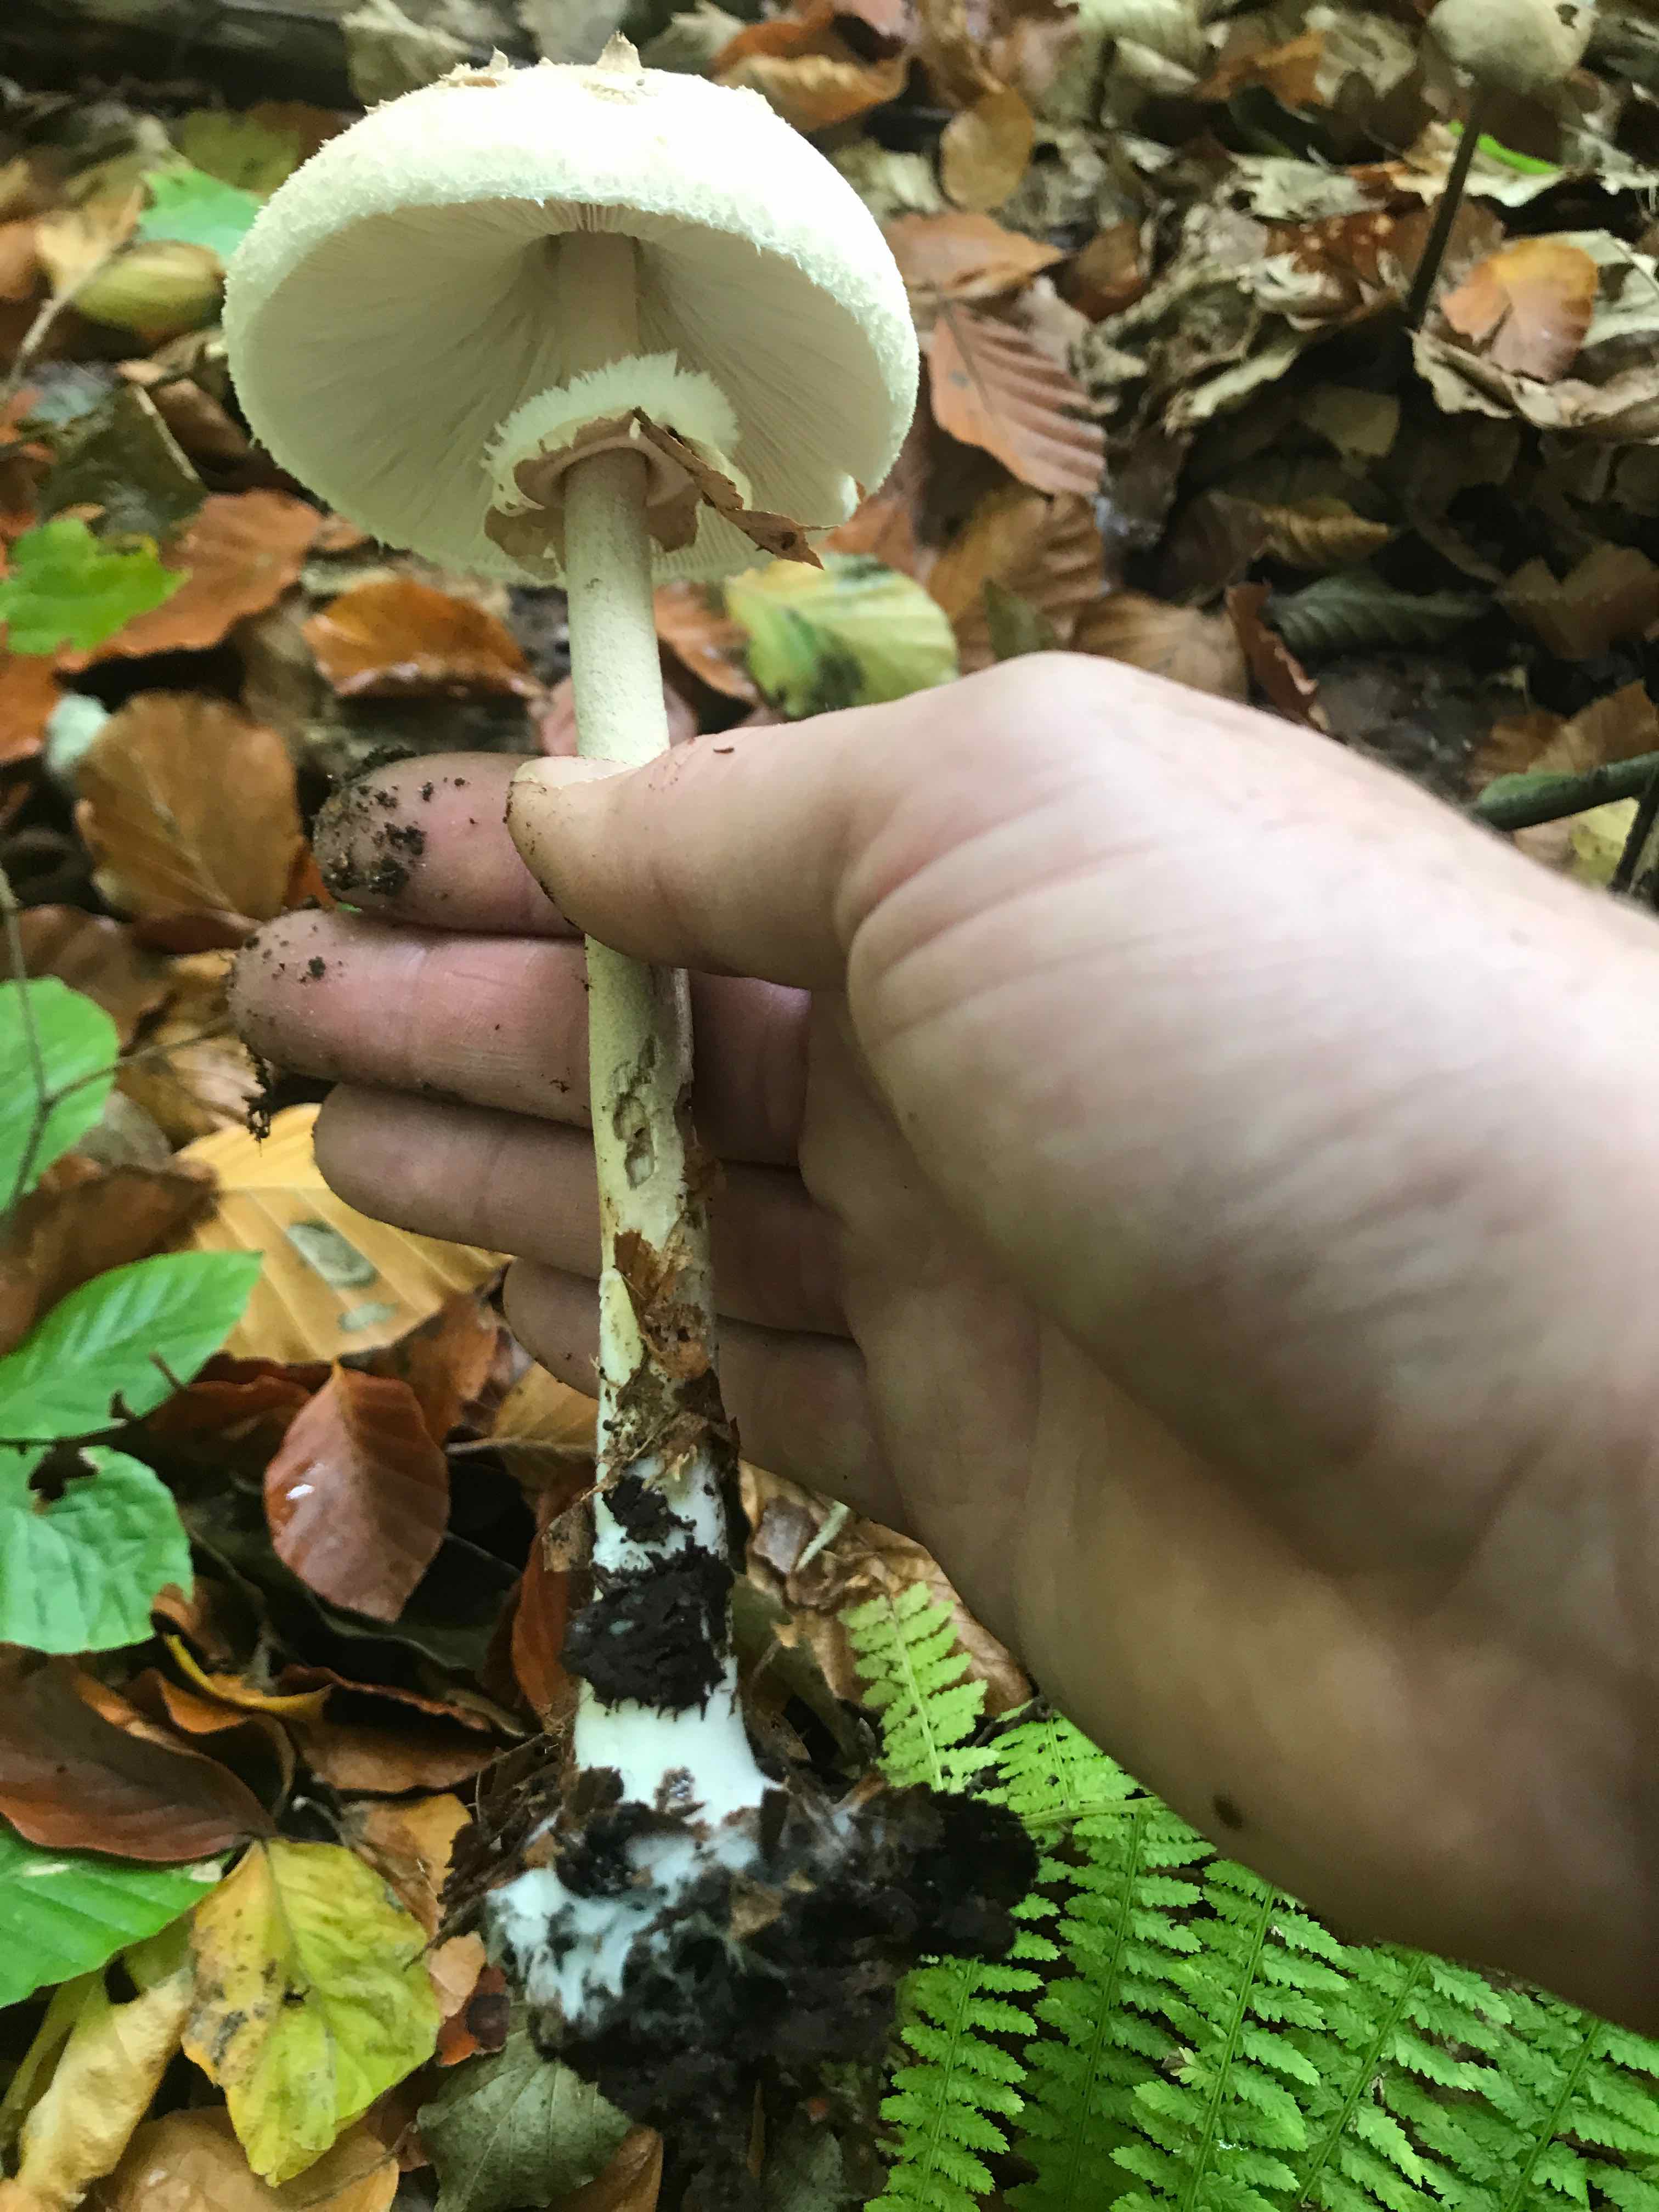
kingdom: Fungi
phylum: Basidiomycota
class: Agaricomycetes
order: Agaricales
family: Agaricaceae
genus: Macrolepiota
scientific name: Macrolepiota mastoidea
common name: puklet kæmpeparasolhat
